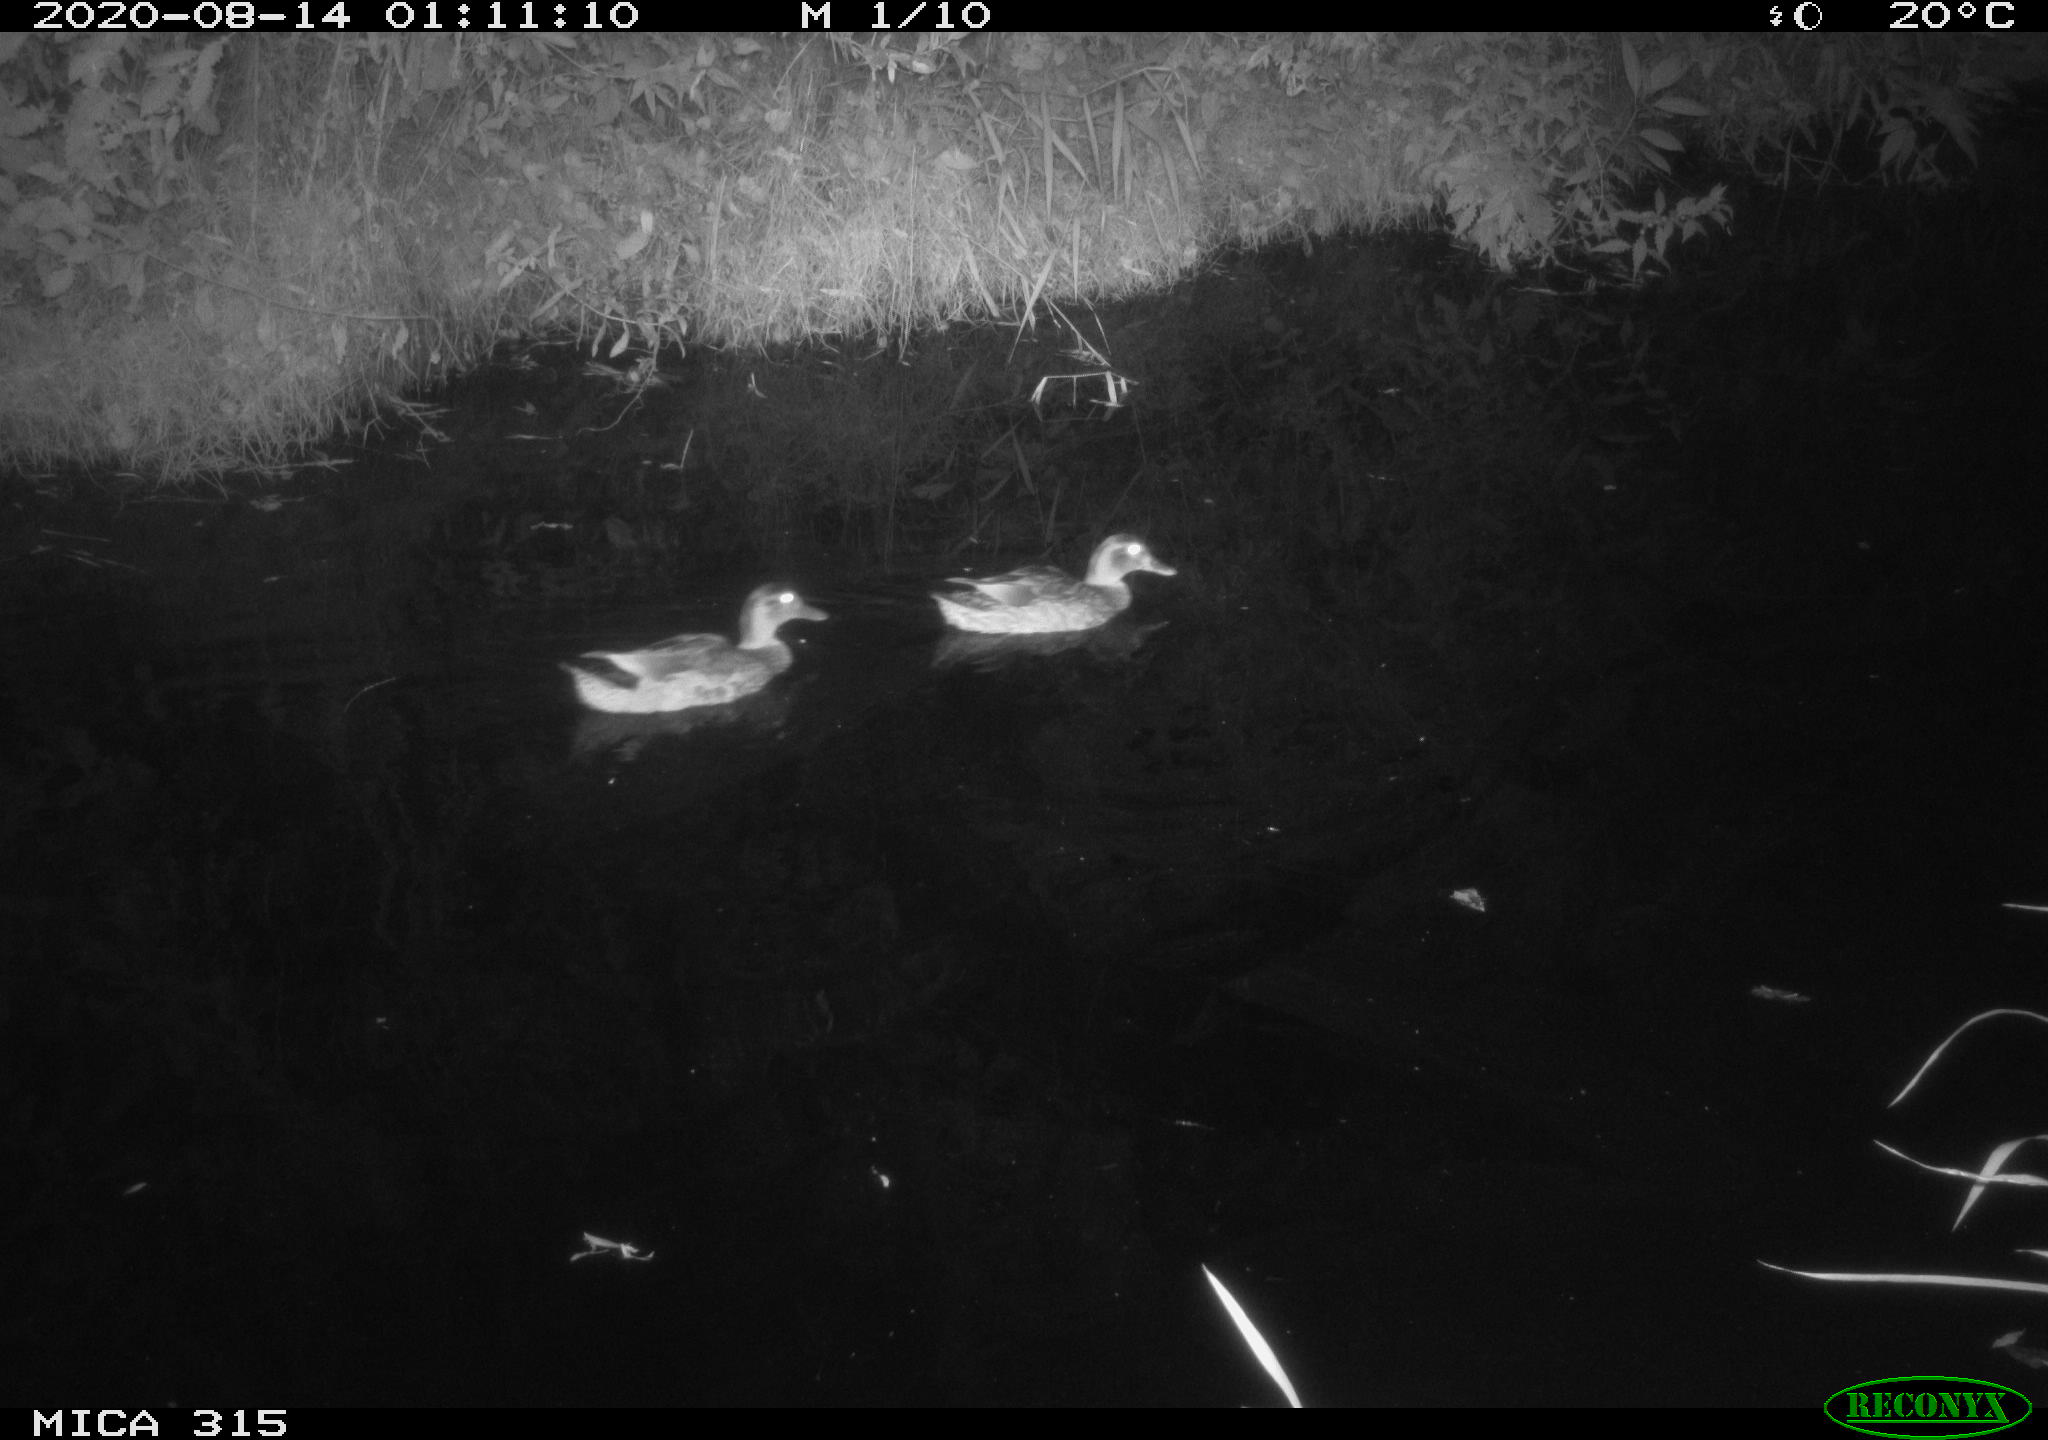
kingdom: Animalia
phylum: Chordata
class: Aves
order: Anseriformes
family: Anatidae
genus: Anas
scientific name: Anas platyrhynchos
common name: Mallard
